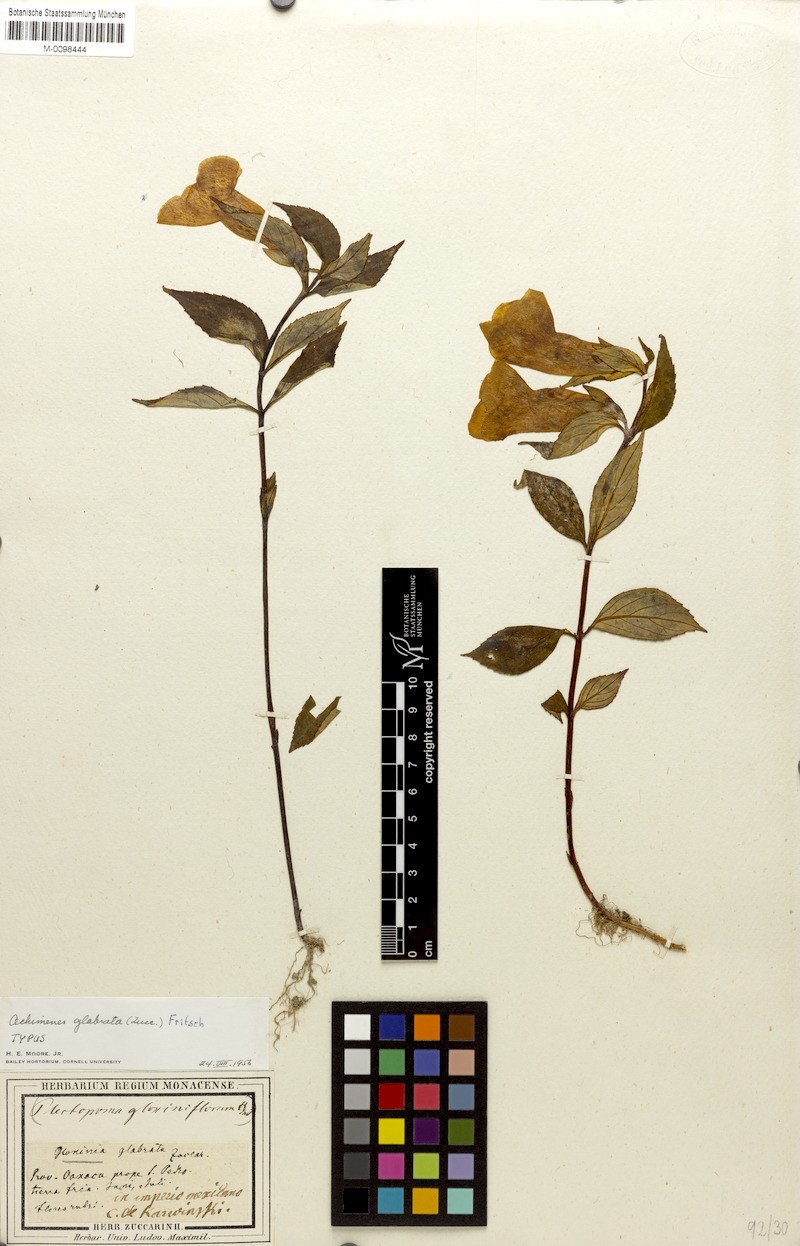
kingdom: Plantae
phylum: Tracheophyta
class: Magnoliopsida
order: Lamiales
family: Gesneriaceae
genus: Achimenes
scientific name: Achimenes glabrata
